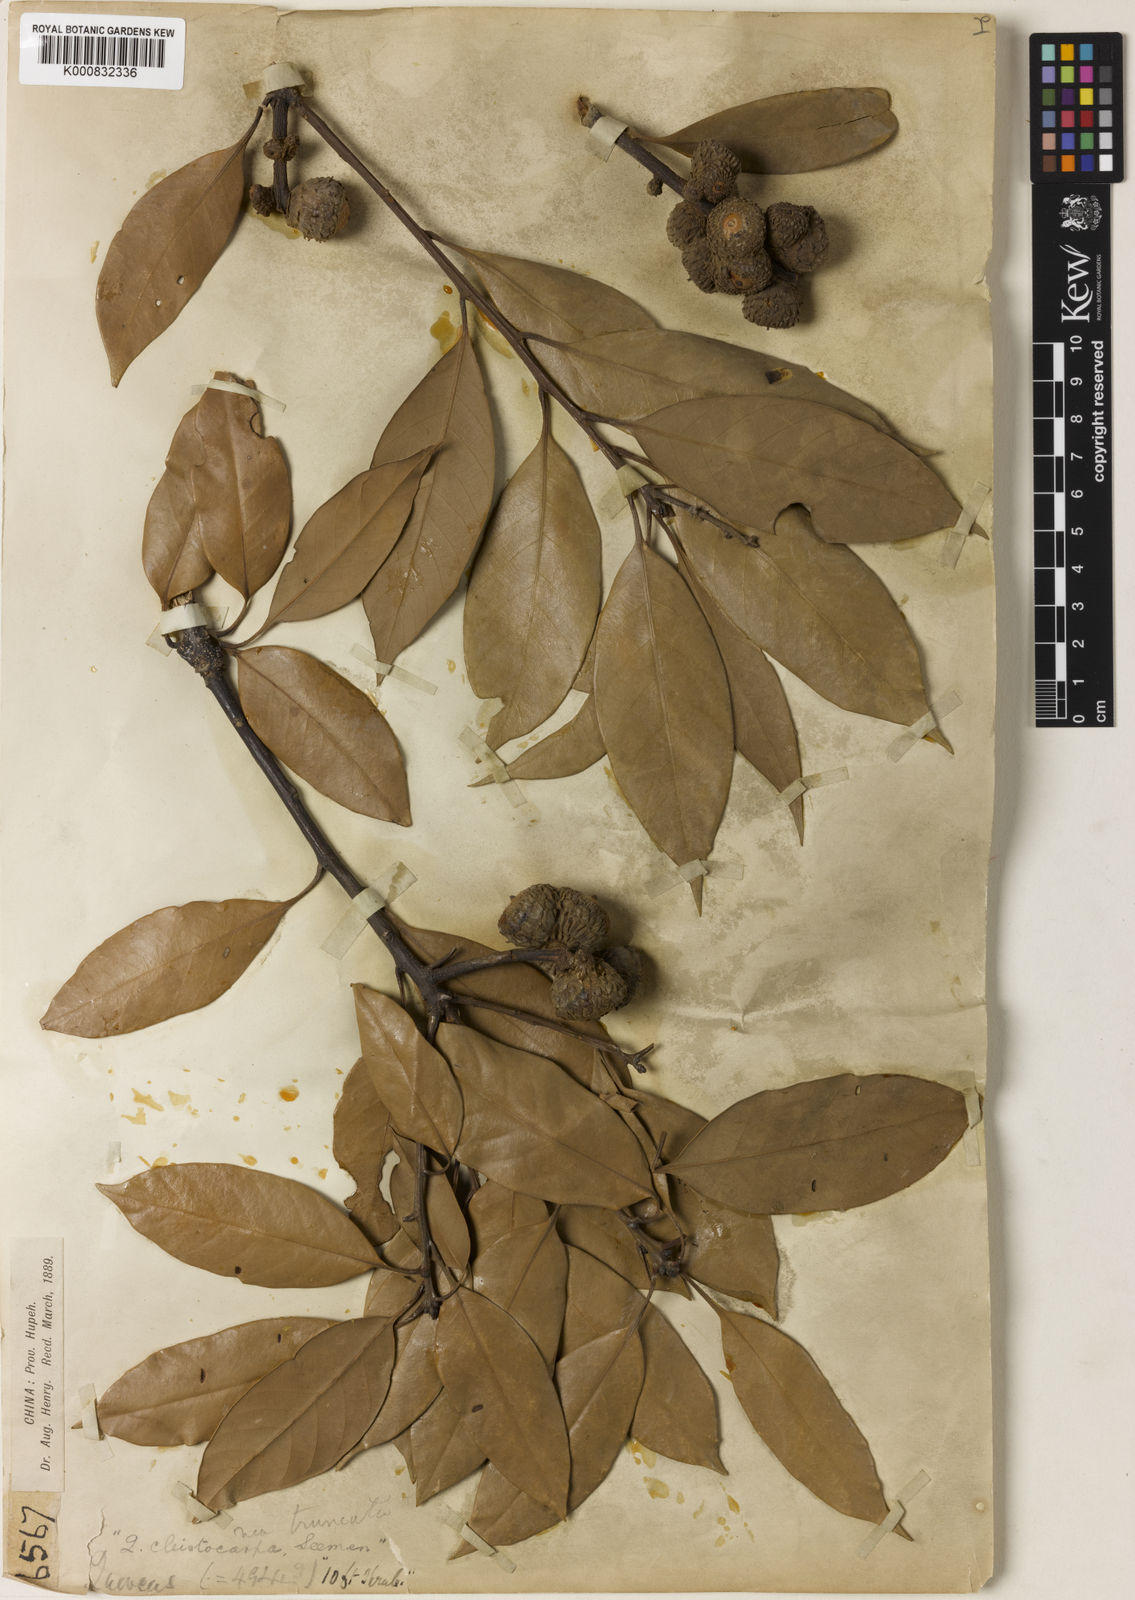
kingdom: Plantae
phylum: Tracheophyta
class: Magnoliopsida
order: Fagales
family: Fagaceae
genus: Lithocarpus
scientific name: Lithocarpus cleistocarpus
